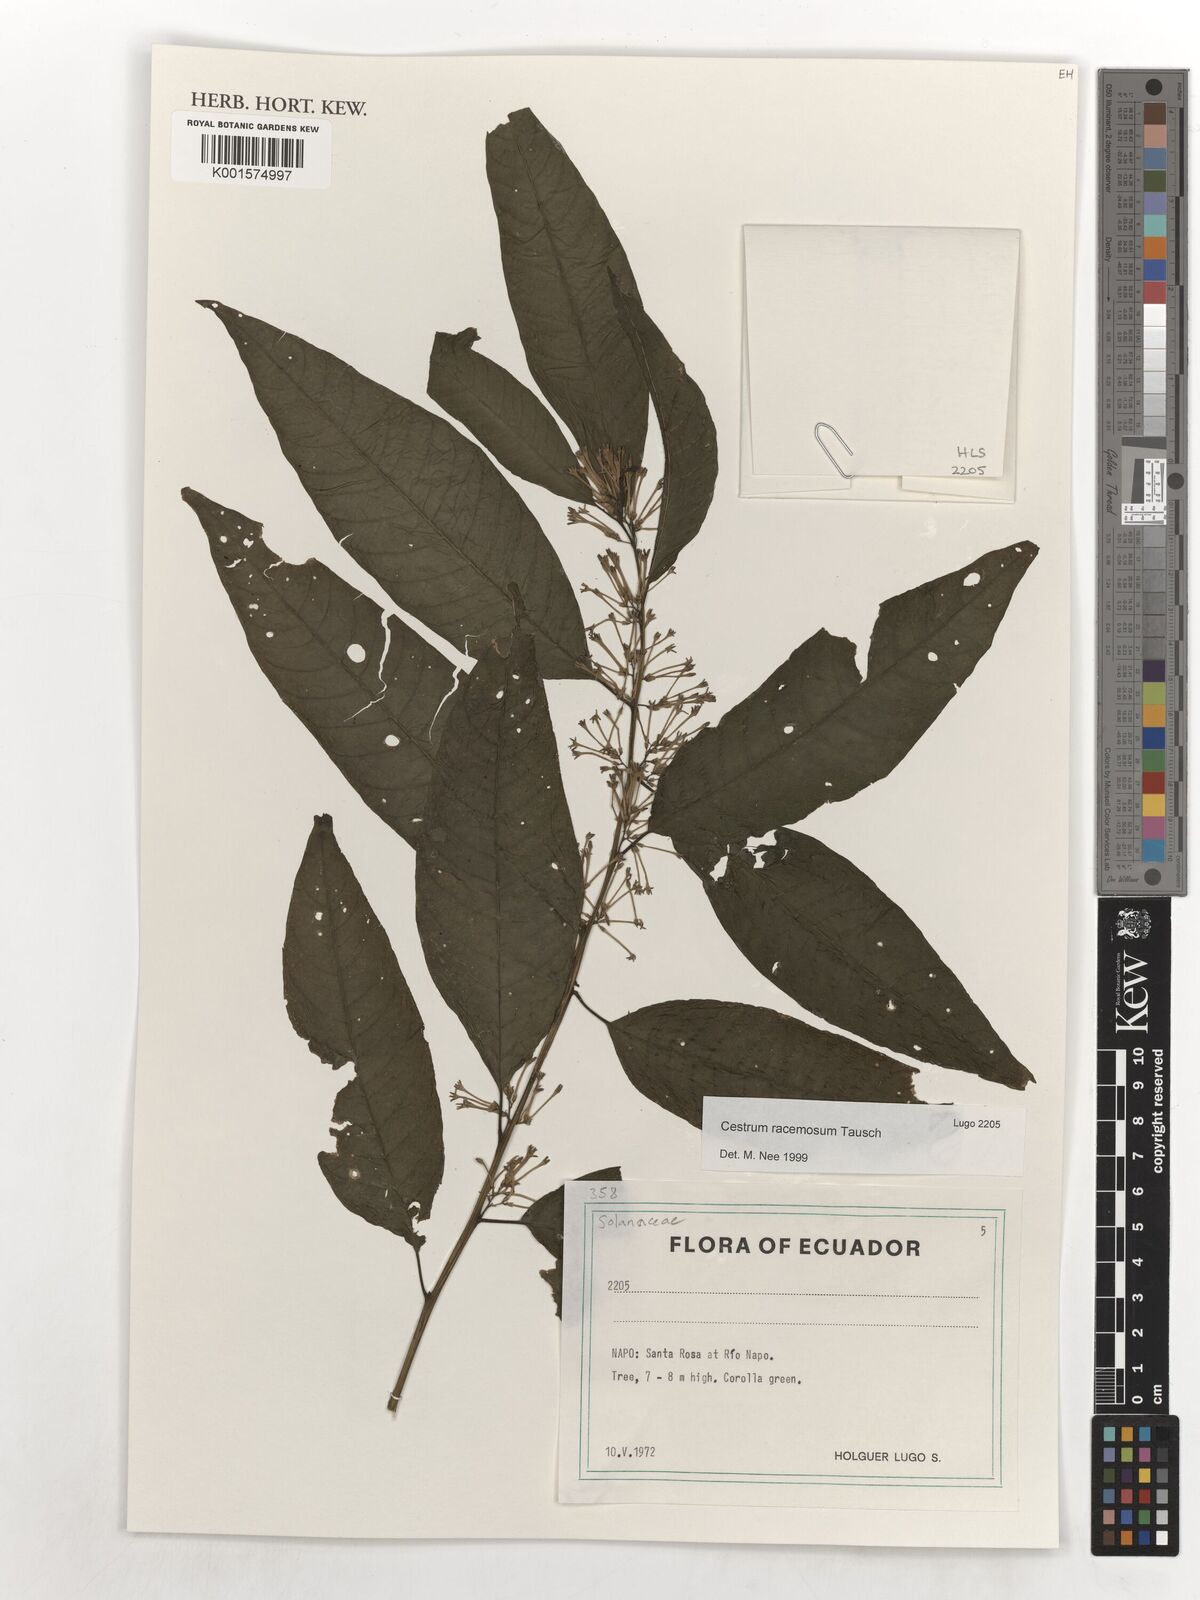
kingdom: Plantae
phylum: Tracheophyta
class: Magnoliopsida
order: Solanales
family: Solanaceae
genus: Cestrum
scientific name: Cestrum lindenii
